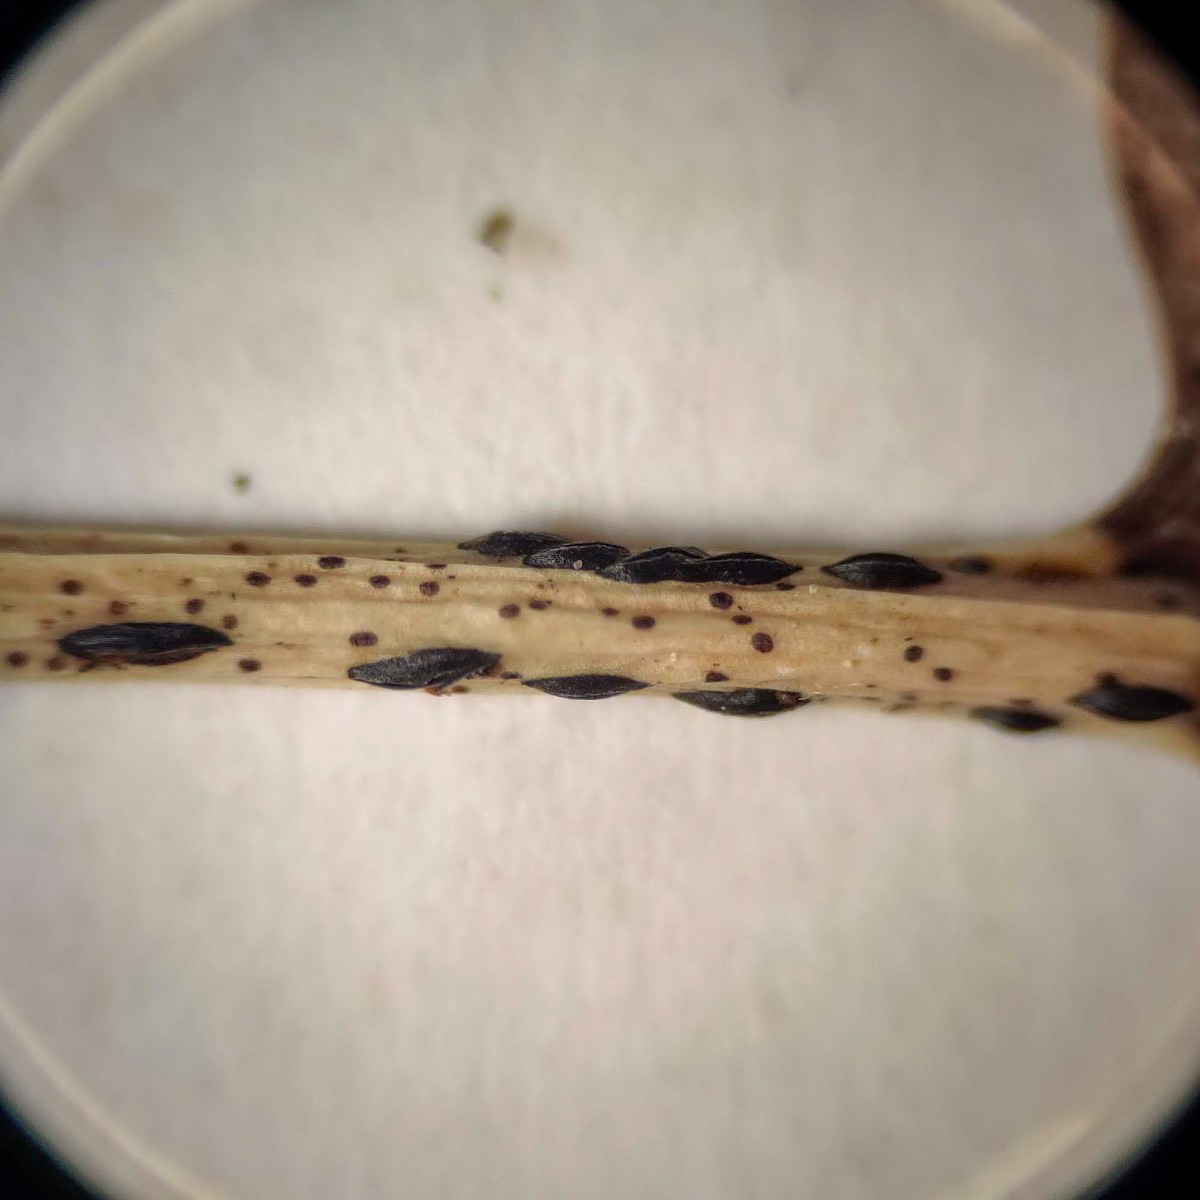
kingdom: Fungi
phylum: Ascomycota
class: Leotiomycetes
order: Rhytismatales
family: Rhytismataceae
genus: Lophodermium
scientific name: Lophodermium petiolicola
